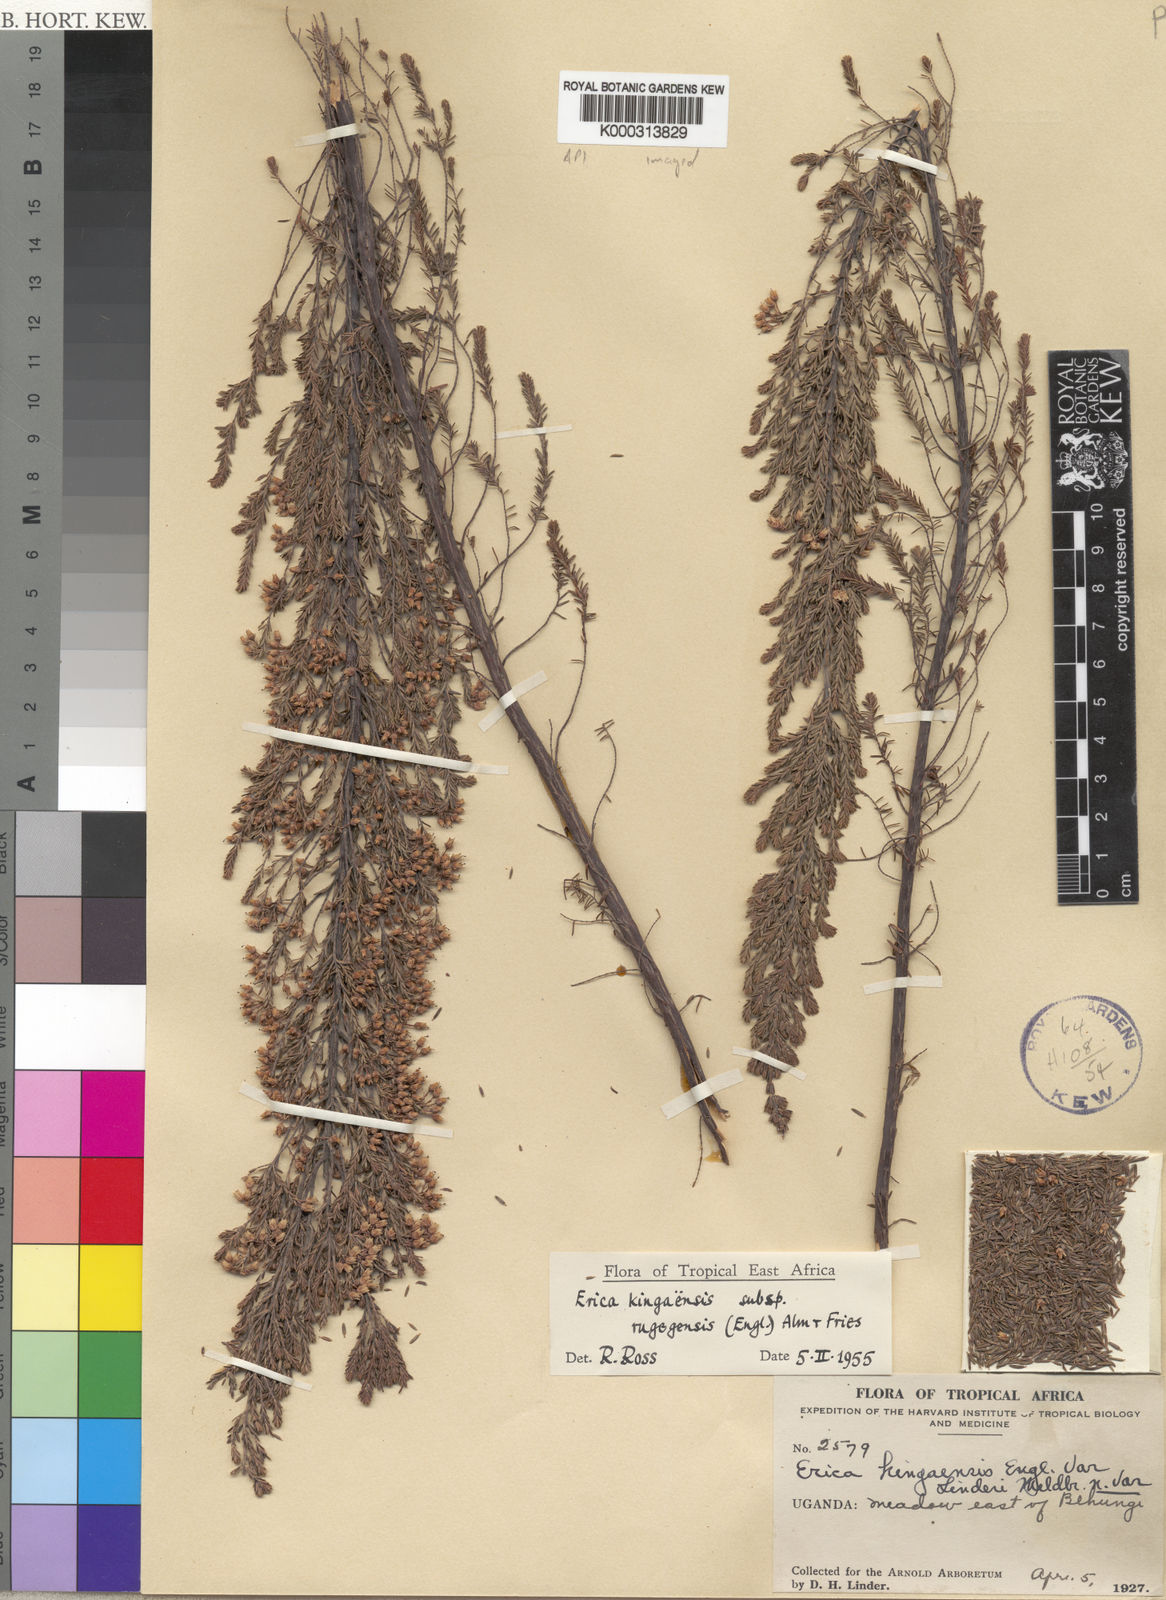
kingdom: Plantae
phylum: Tracheophyta
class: Magnoliopsida
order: Ericales
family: Ericaceae
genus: Erica
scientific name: Erica kingaensis
